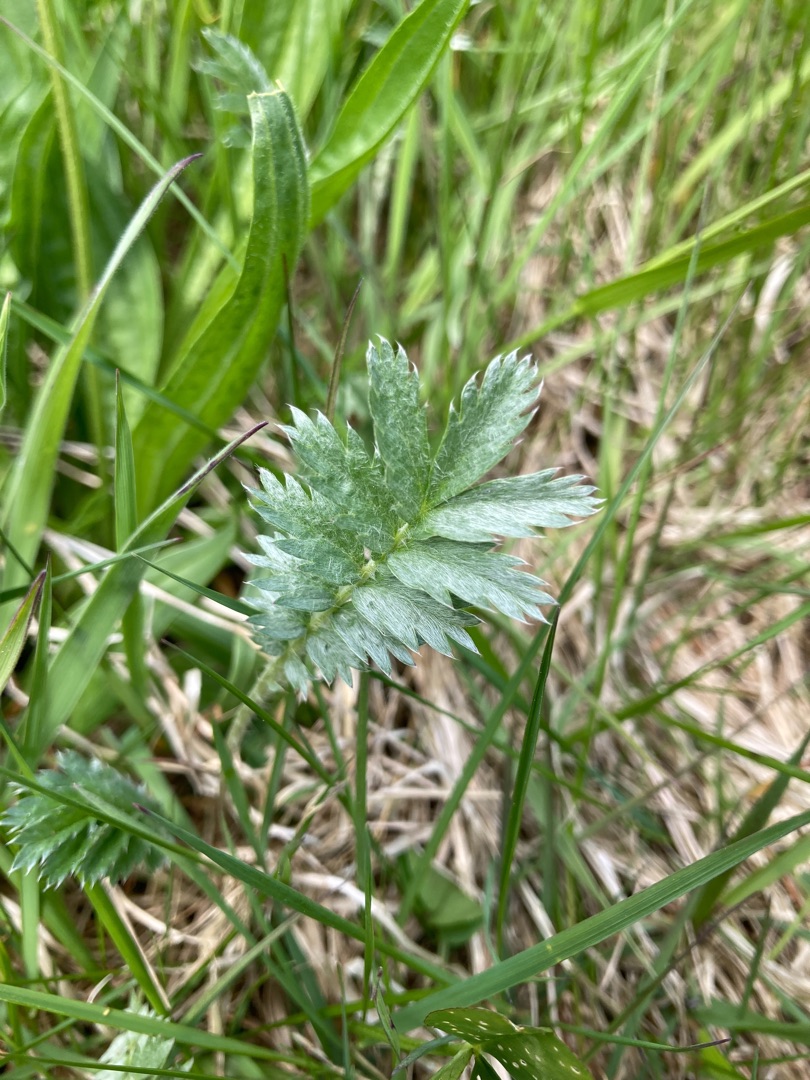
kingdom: Plantae
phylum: Tracheophyta
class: Magnoliopsida
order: Rosales
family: Rosaceae
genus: Argentina
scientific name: Argentina anserina
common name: Gåsepotentil
